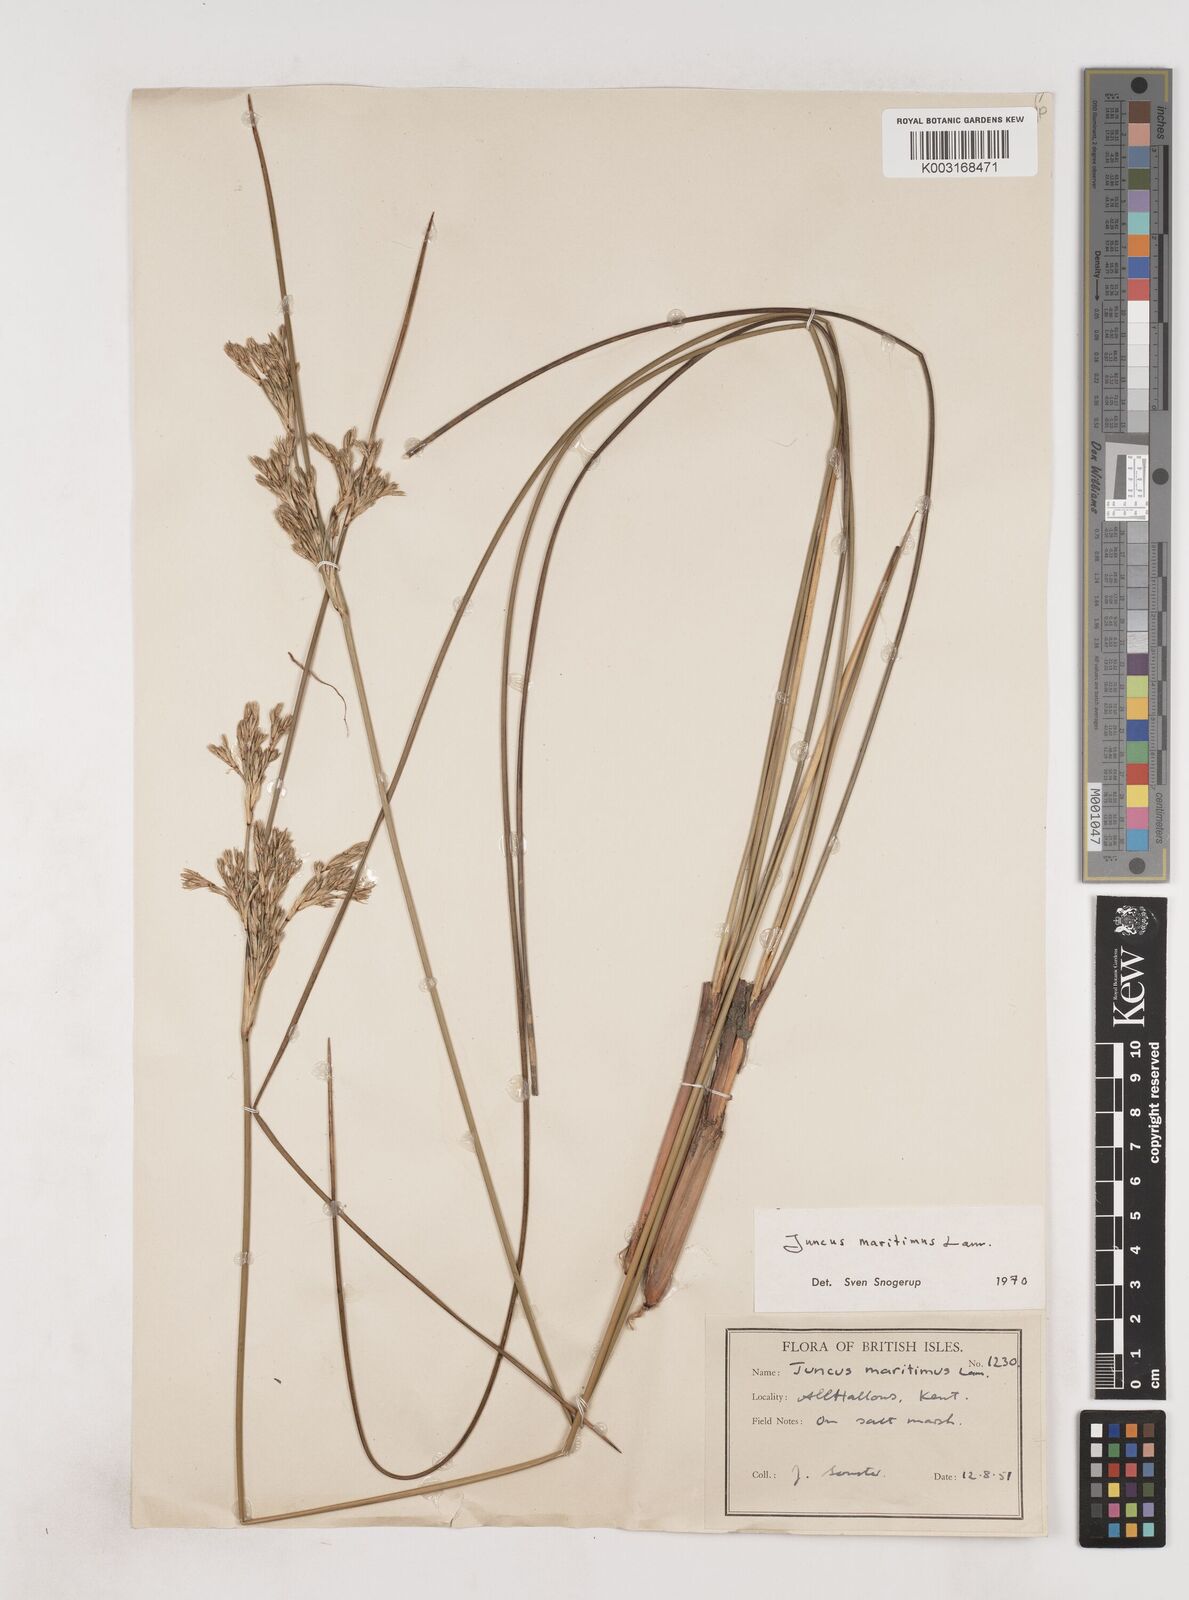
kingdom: Plantae
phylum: Tracheophyta
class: Liliopsida
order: Poales
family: Juncaceae
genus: Juncus
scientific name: Juncus maritimus
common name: Sea rush
